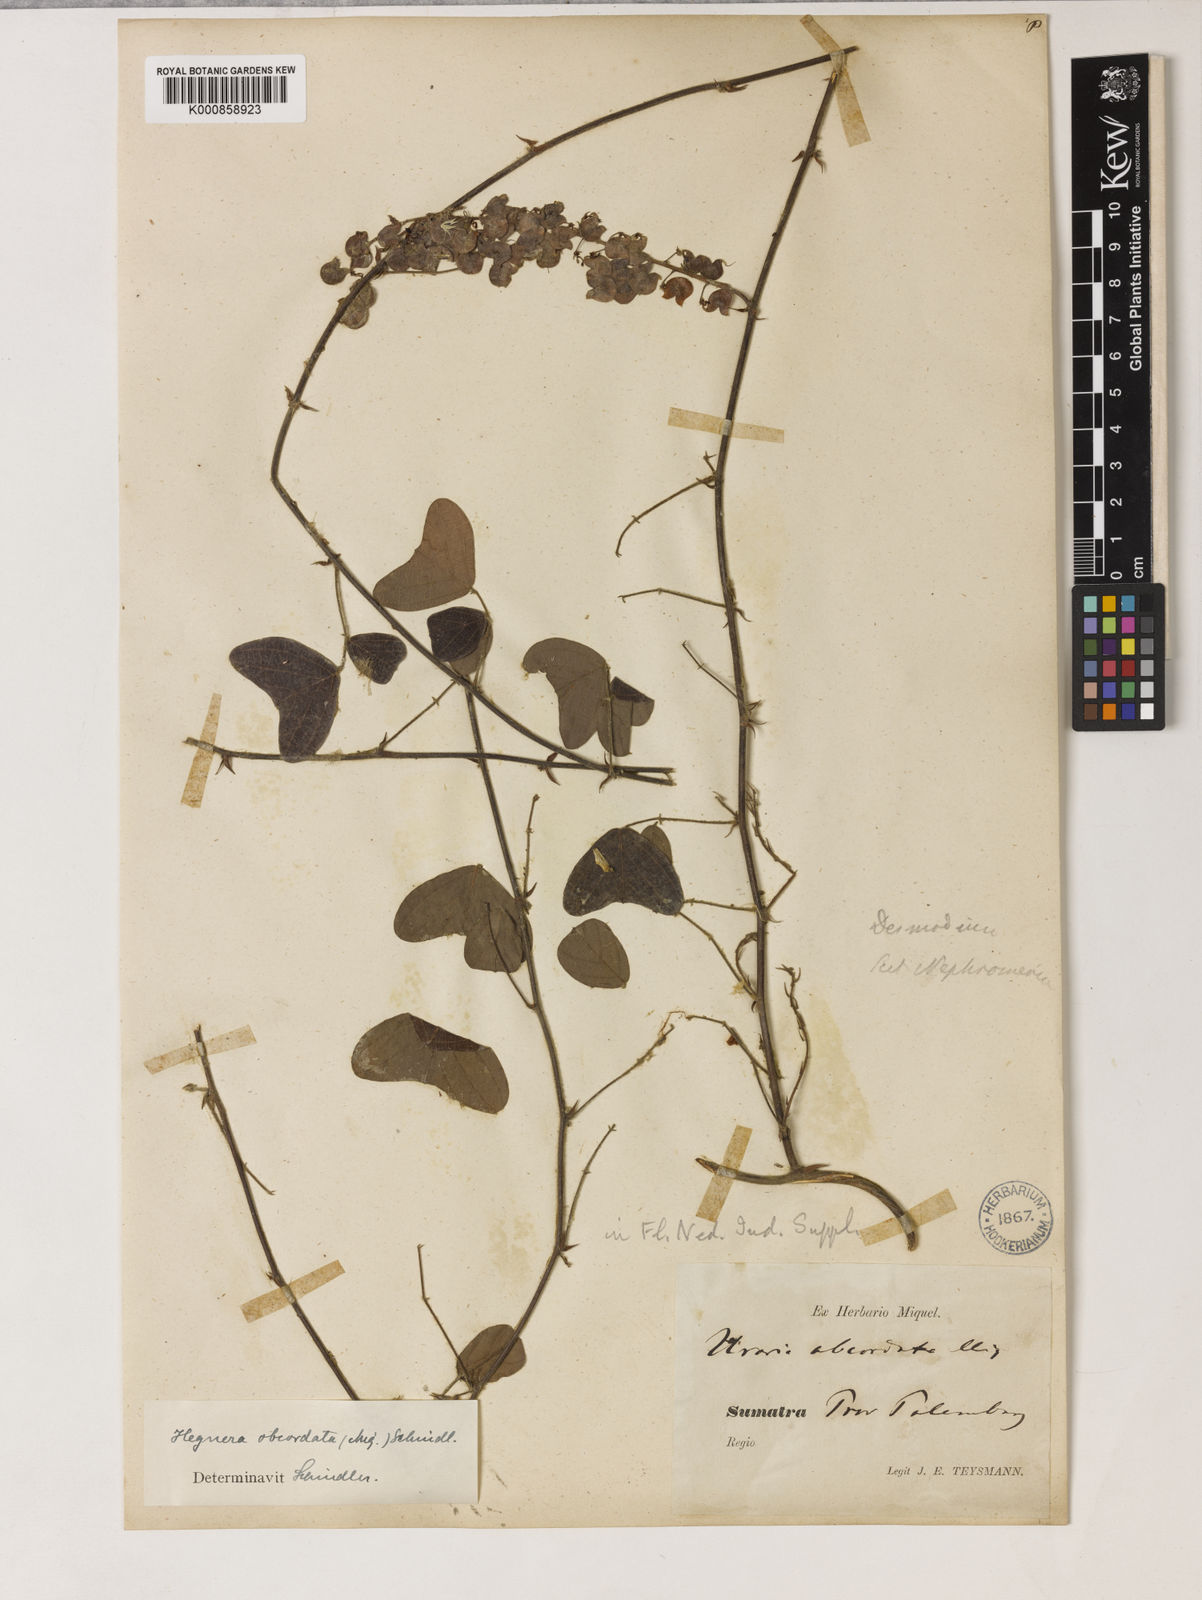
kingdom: Plantae
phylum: Tracheophyta
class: Magnoliopsida
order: Fabales
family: Fabaceae
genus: Hegnera
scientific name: Hegnera obcordata
